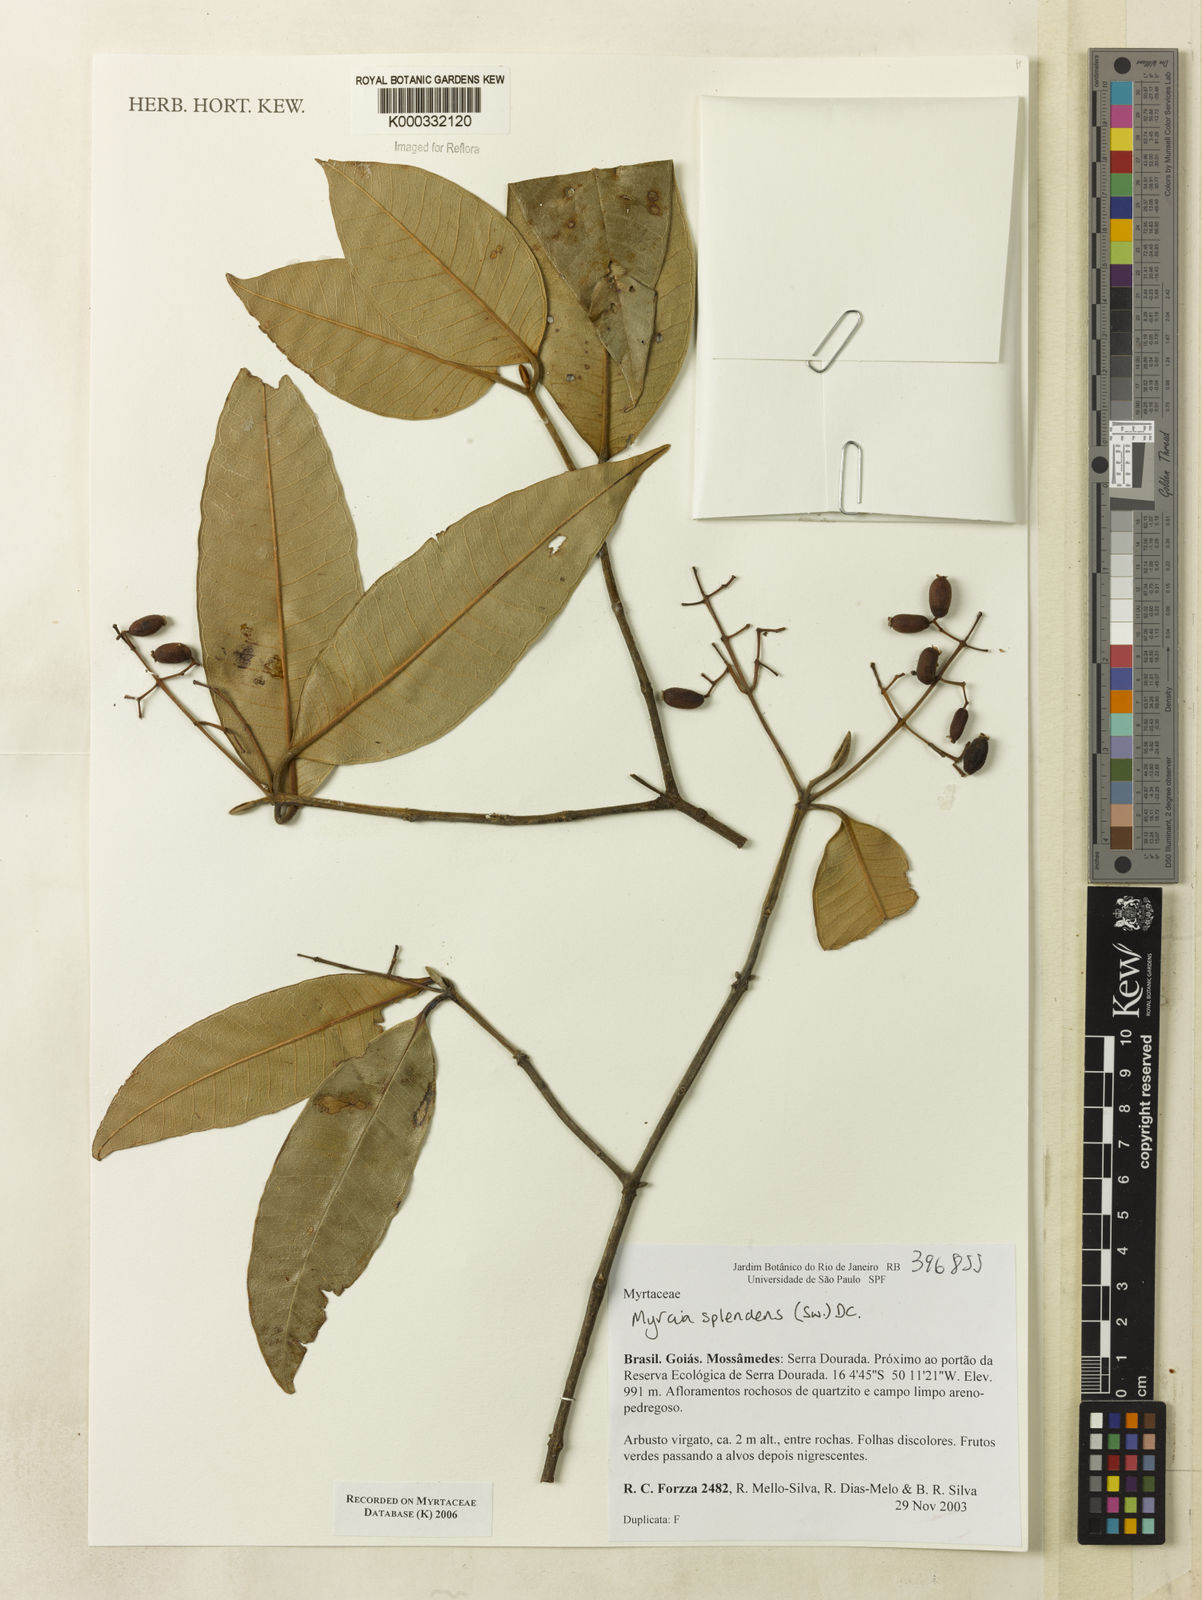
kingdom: Plantae
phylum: Tracheophyta
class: Magnoliopsida
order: Myrtales
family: Myrtaceae
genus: Myrcia
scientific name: Myrcia splendens
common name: Surinam cherry
